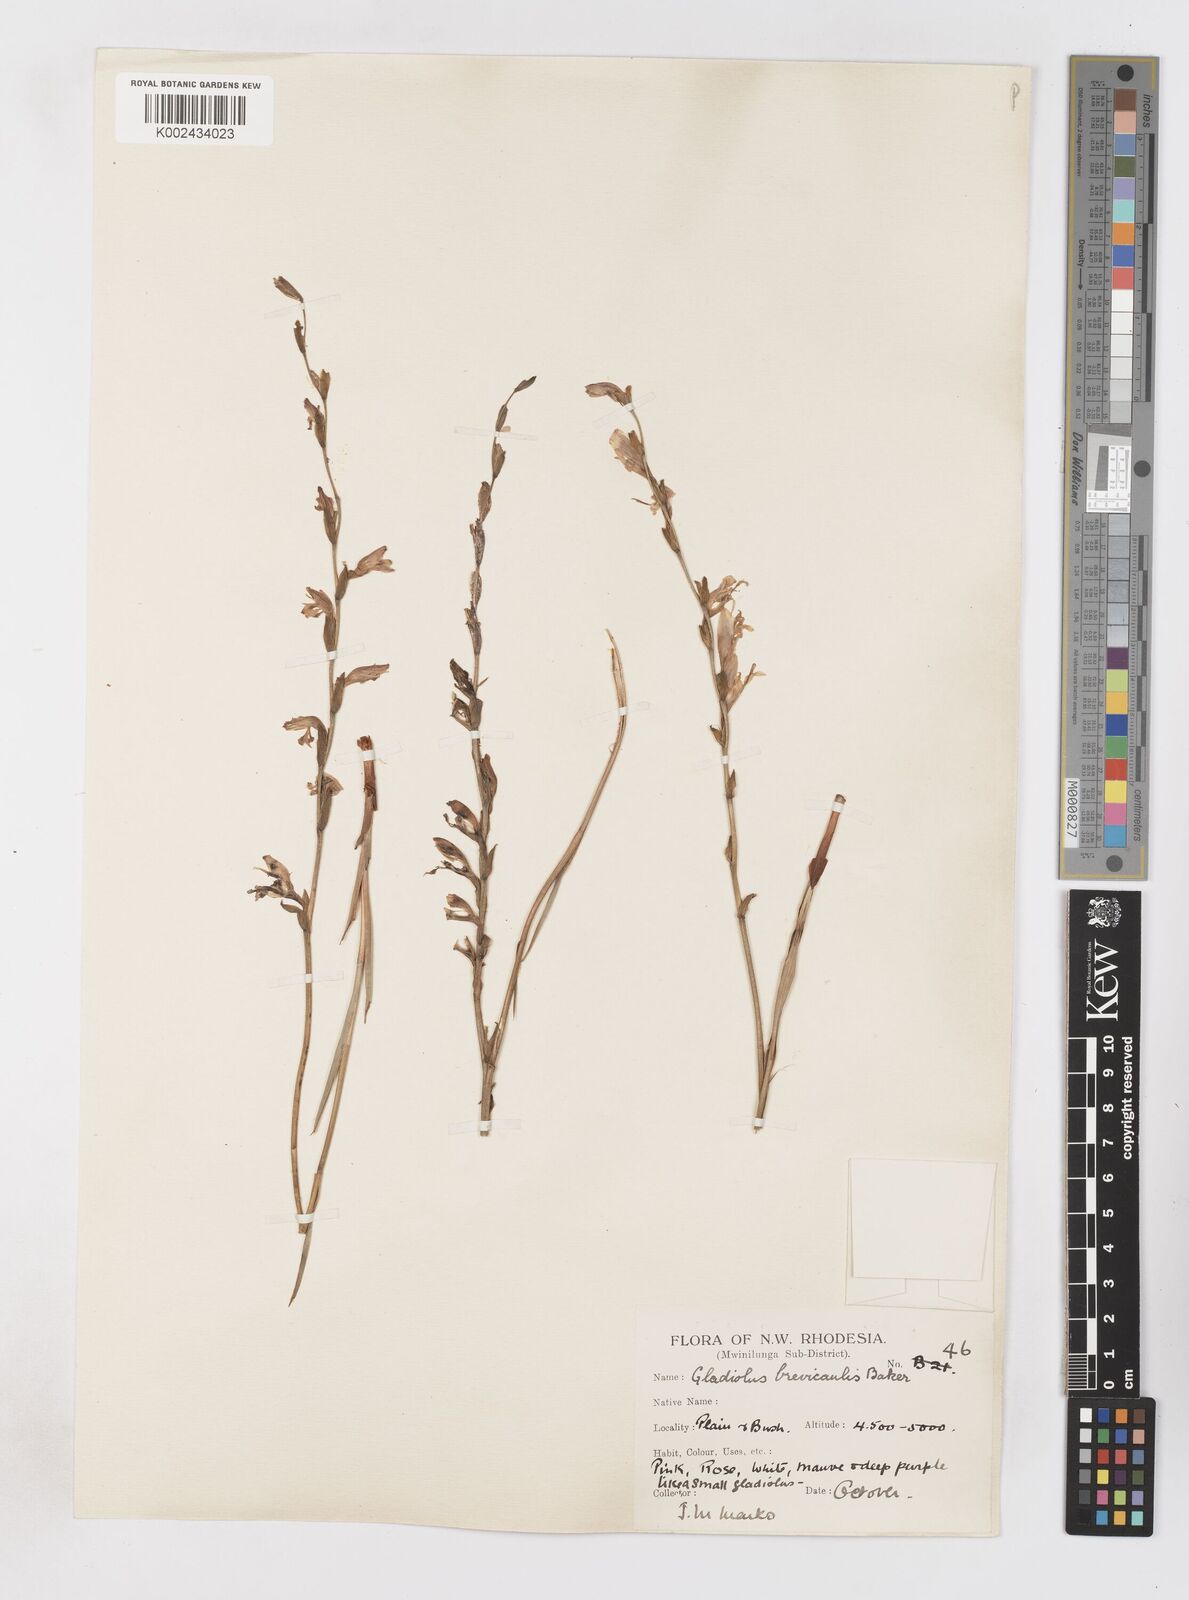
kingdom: Plantae
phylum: Tracheophyta
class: Liliopsida
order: Asparagales
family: Iridaceae
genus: Gladiolus
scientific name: Gladiolus atropurpureus
